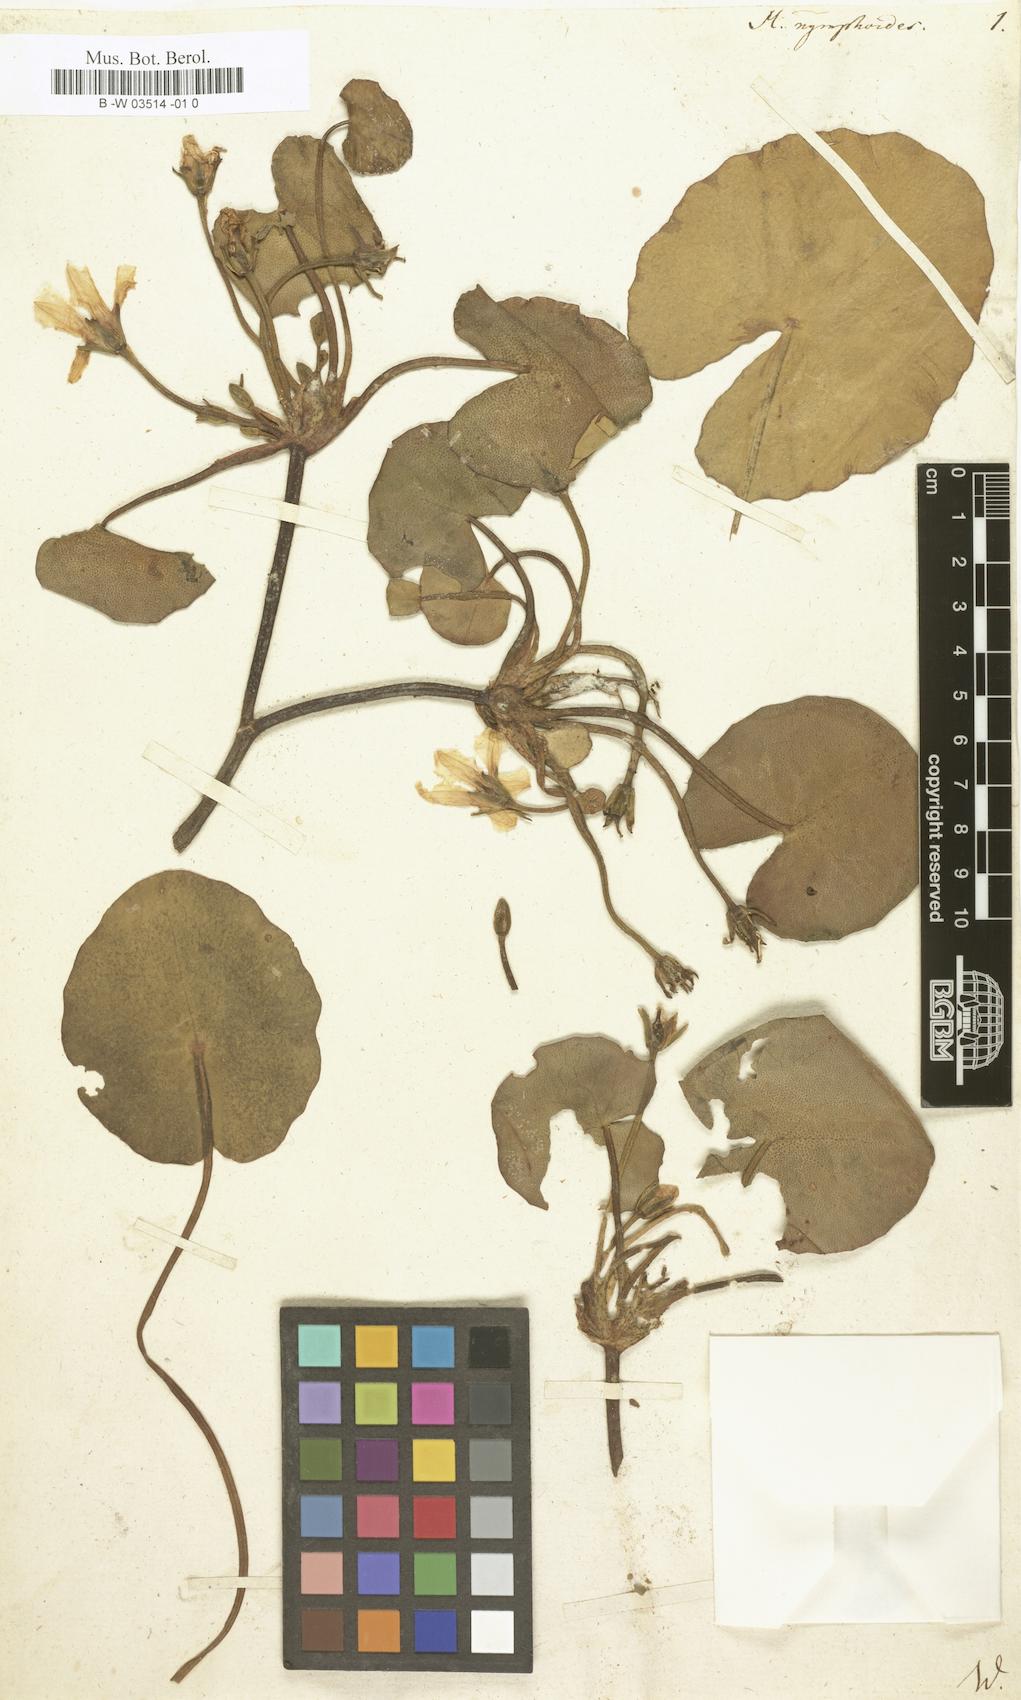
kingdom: Plantae
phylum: Tracheophyta
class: Magnoliopsida
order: Asterales
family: Menyanthaceae
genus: Nymphoides
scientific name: Nymphoides peltata
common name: Fringed water-lily
